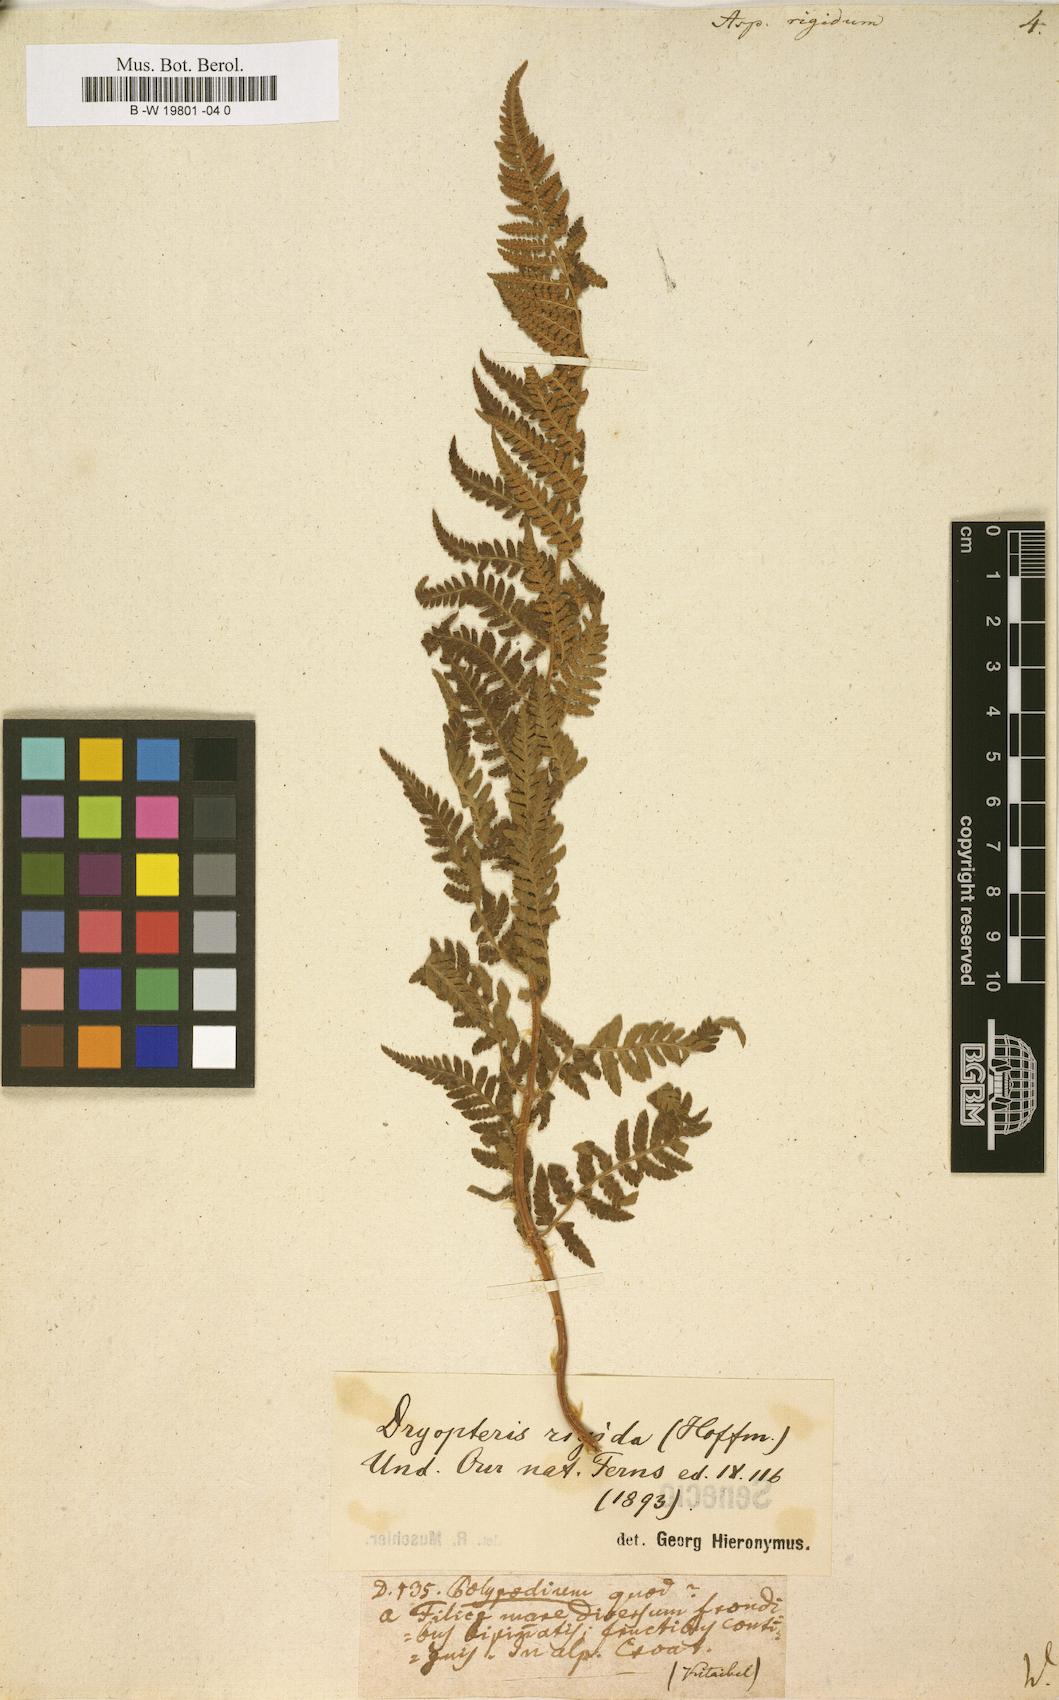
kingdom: Plantae
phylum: Tracheophyta
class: Polypodiopsida
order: Polypodiales
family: Dryopteridaceae
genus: Dryopteris
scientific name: Dryopteris villarii
